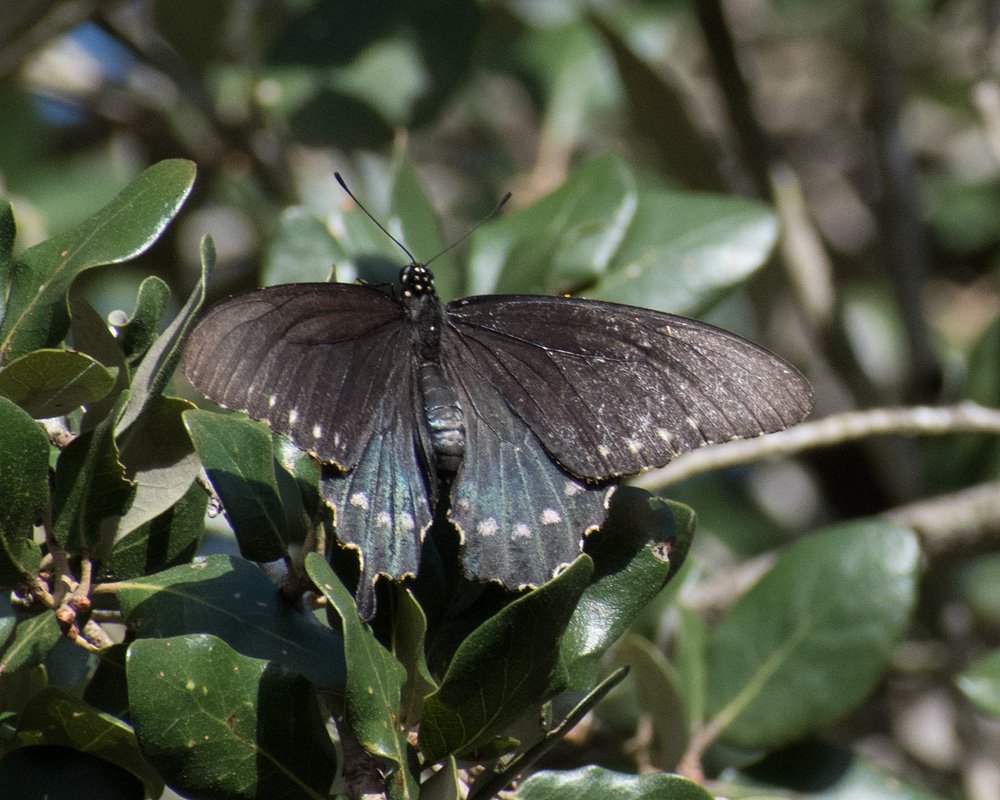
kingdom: Animalia
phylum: Arthropoda
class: Insecta
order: Lepidoptera
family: Papilionidae
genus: Battus
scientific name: Battus philenor
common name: Pipevine Swallowtail
